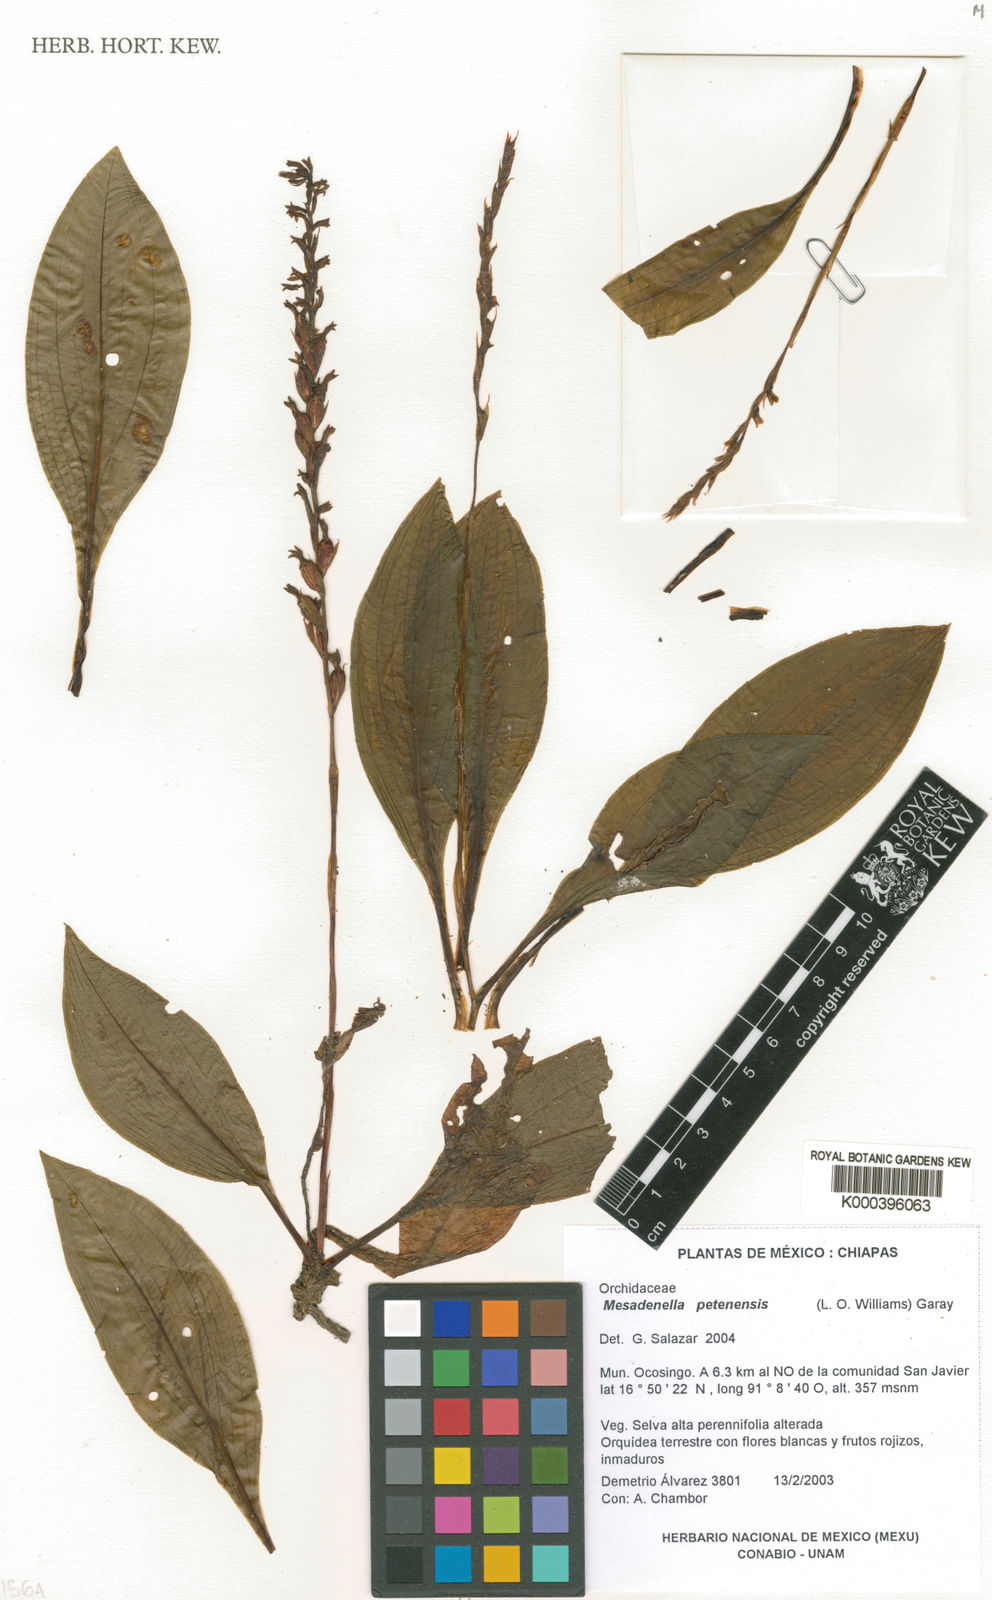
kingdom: Plantae
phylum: Tracheophyta
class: Liliopsida
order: Asparagales
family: Orchidaceae
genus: Mesadenella
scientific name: Mesadenella petenensis
